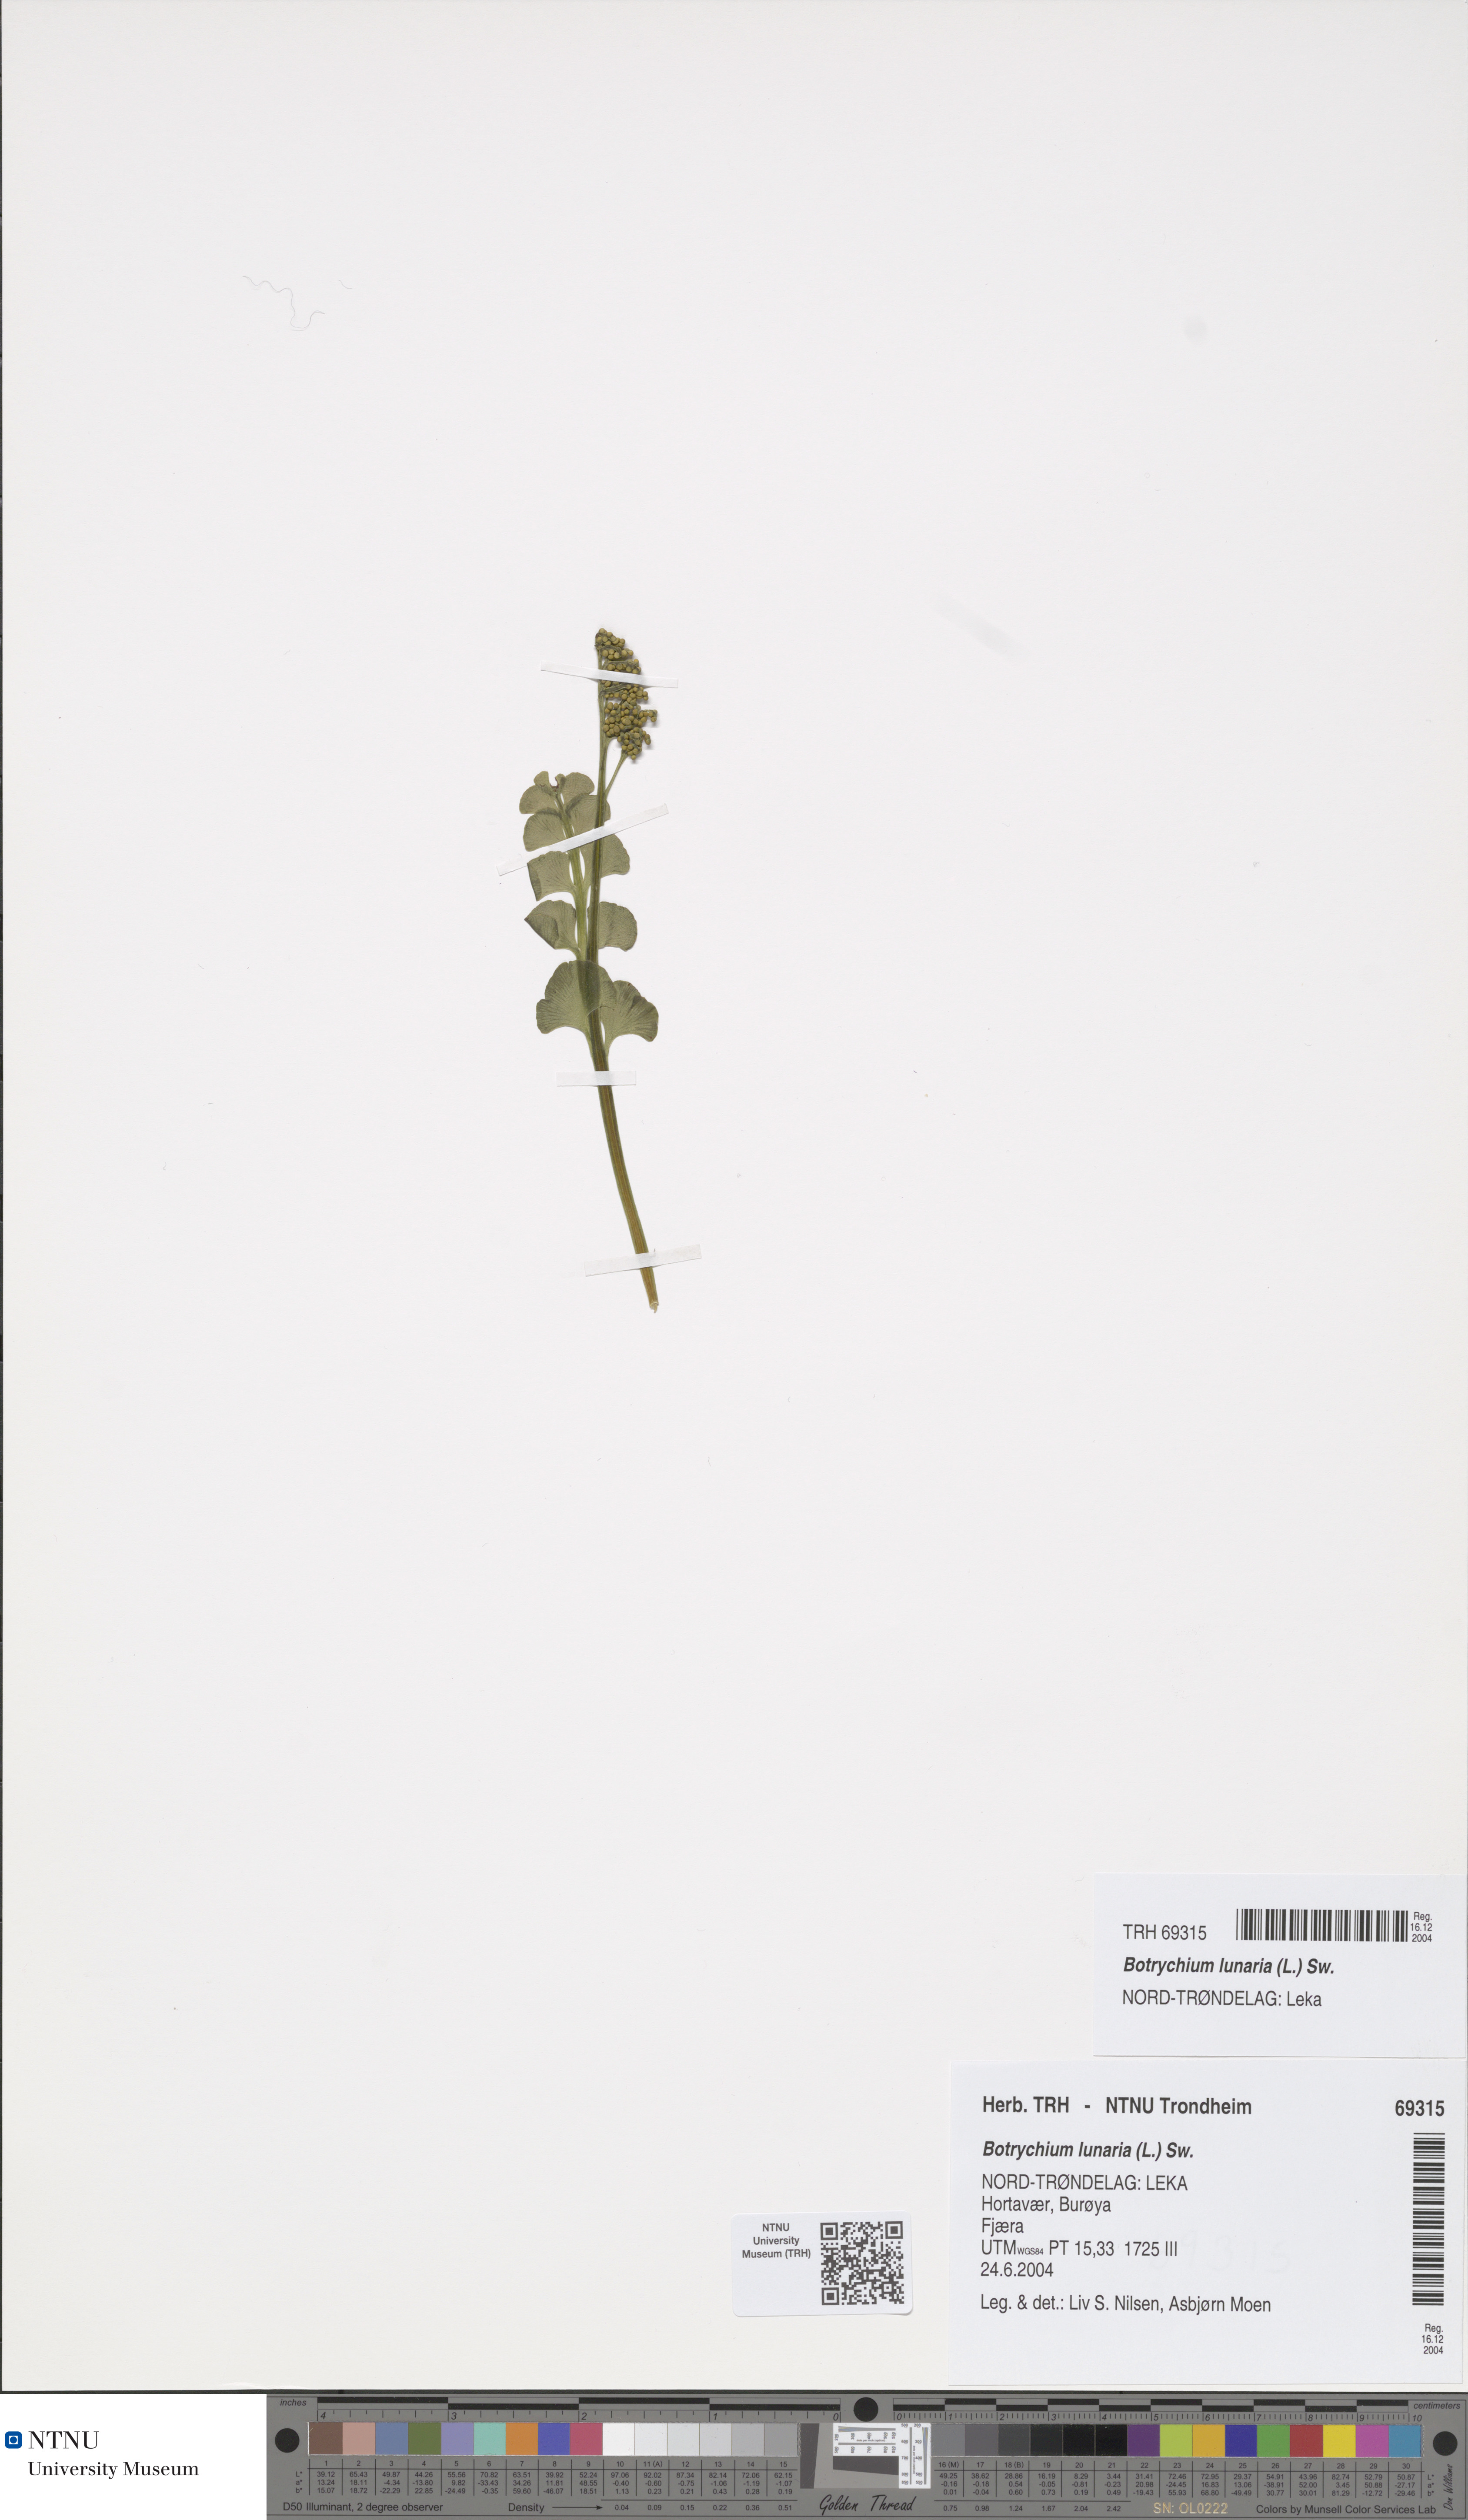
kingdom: Plantae
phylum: Tracheophyta
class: Polypodiopsida
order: Ophioglossales
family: Ophioglossaceae
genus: Botrychium
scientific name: Botrychium lunaria
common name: Moonwort
